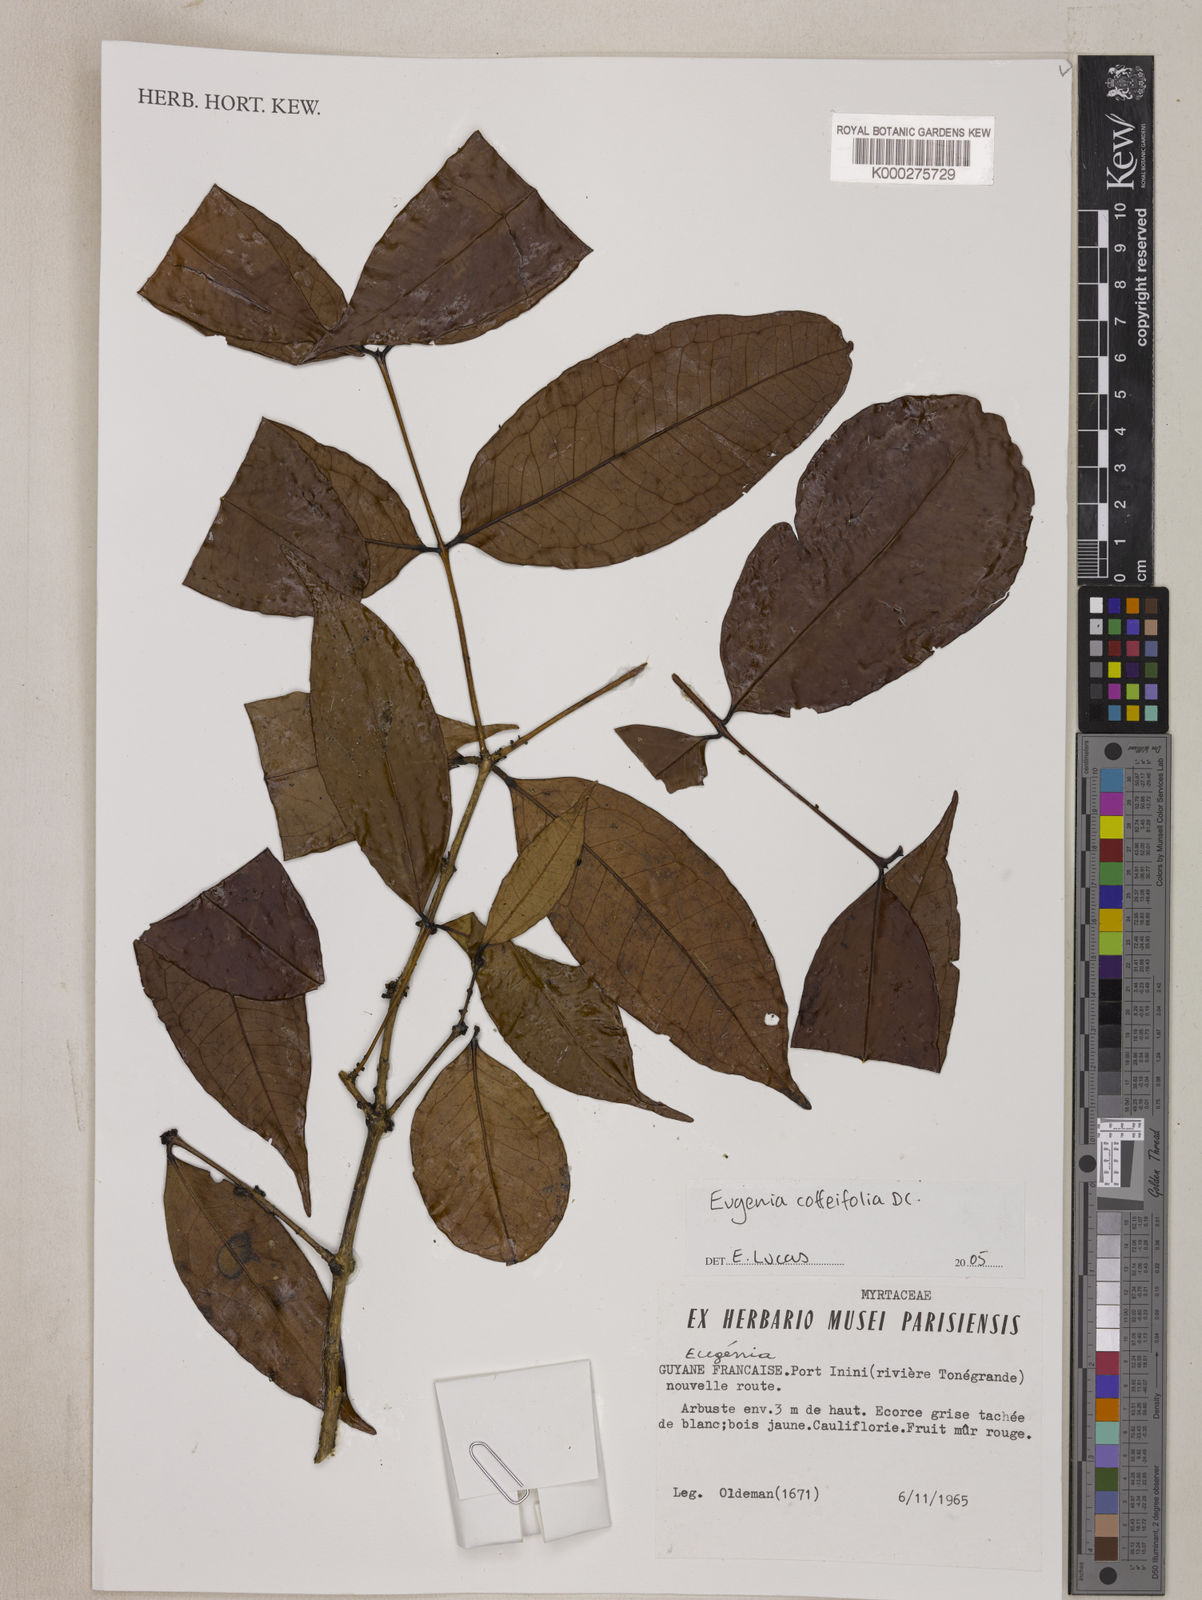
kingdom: Plantae
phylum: Tracheophyta
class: Magnoliopsida
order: Myrtales
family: Myrtaceae
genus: Eugenia
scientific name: Eugenia coffeifolia
